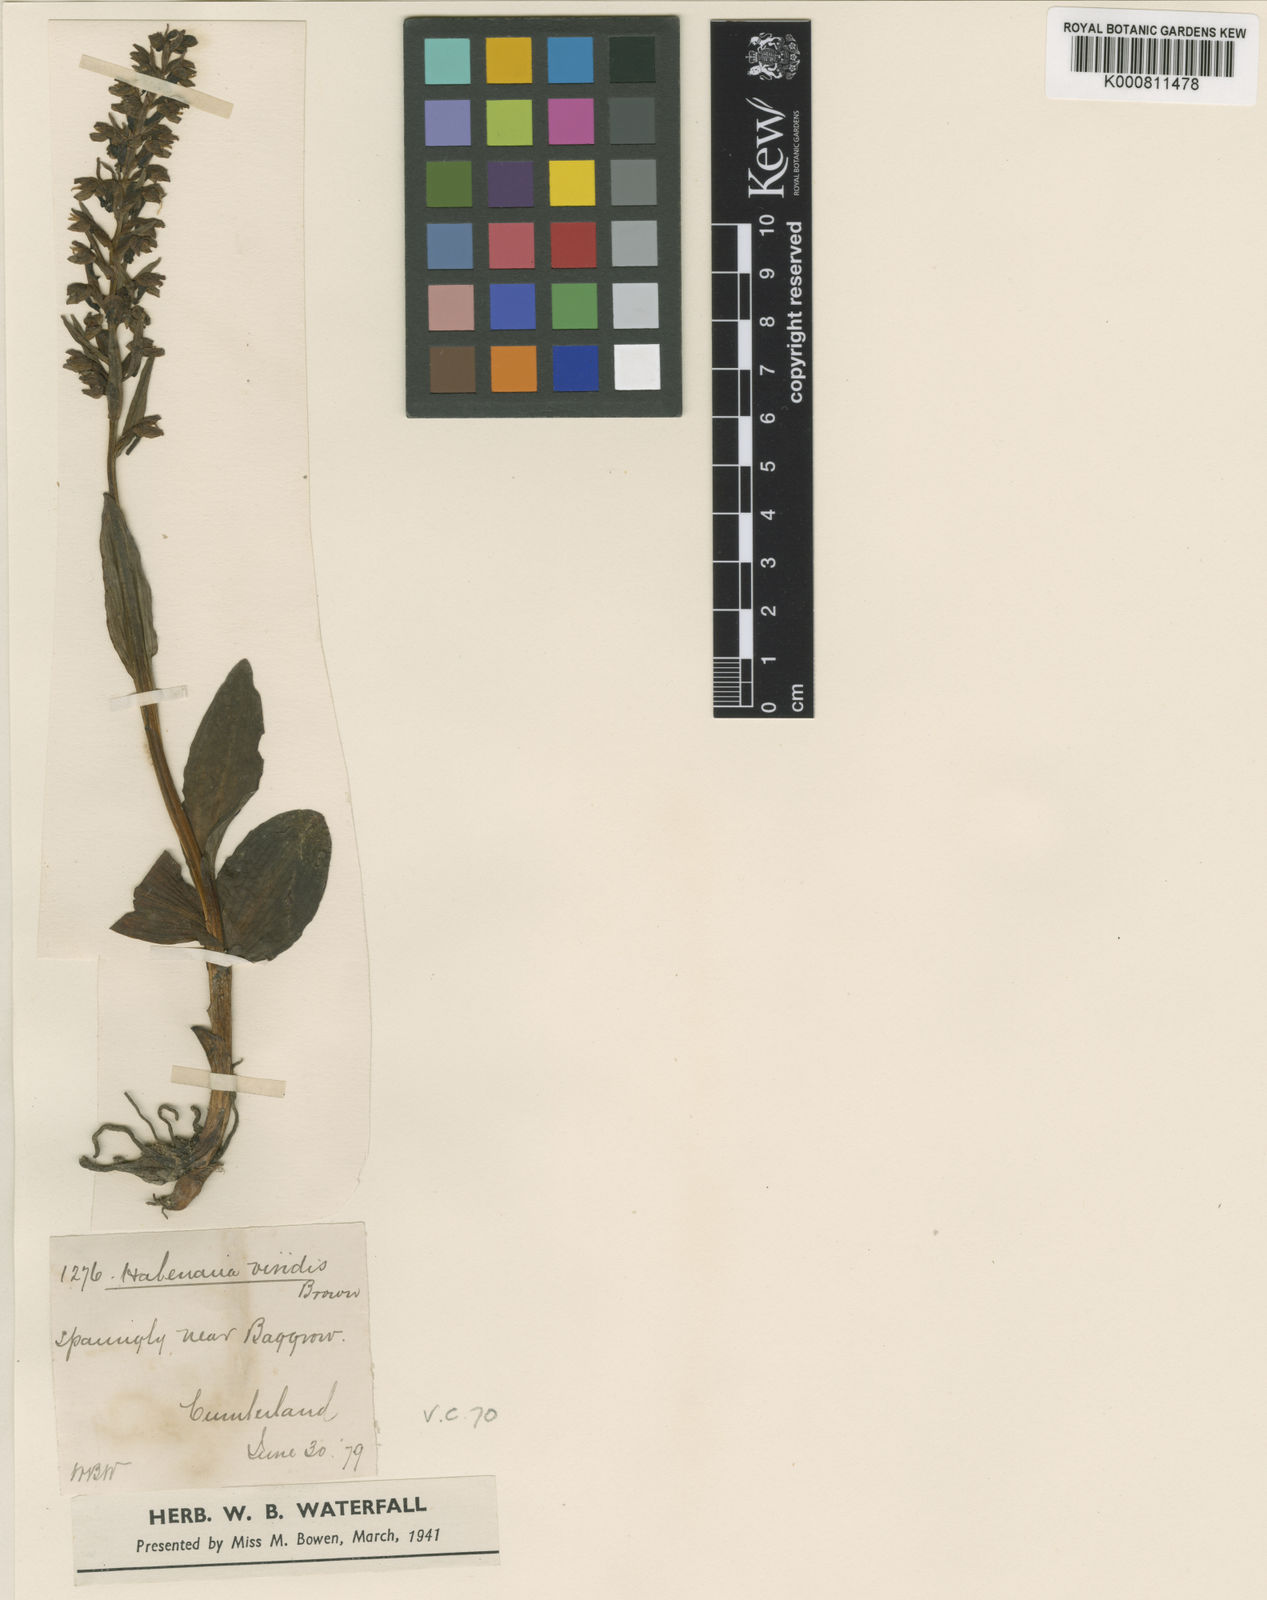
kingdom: Plantae
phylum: Tracheophyta
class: Liliopsida
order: Asparagales
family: Orchidaceae
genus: Dactylorhiza
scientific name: Dactylorhiza viridis
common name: Longbract frog orchid
